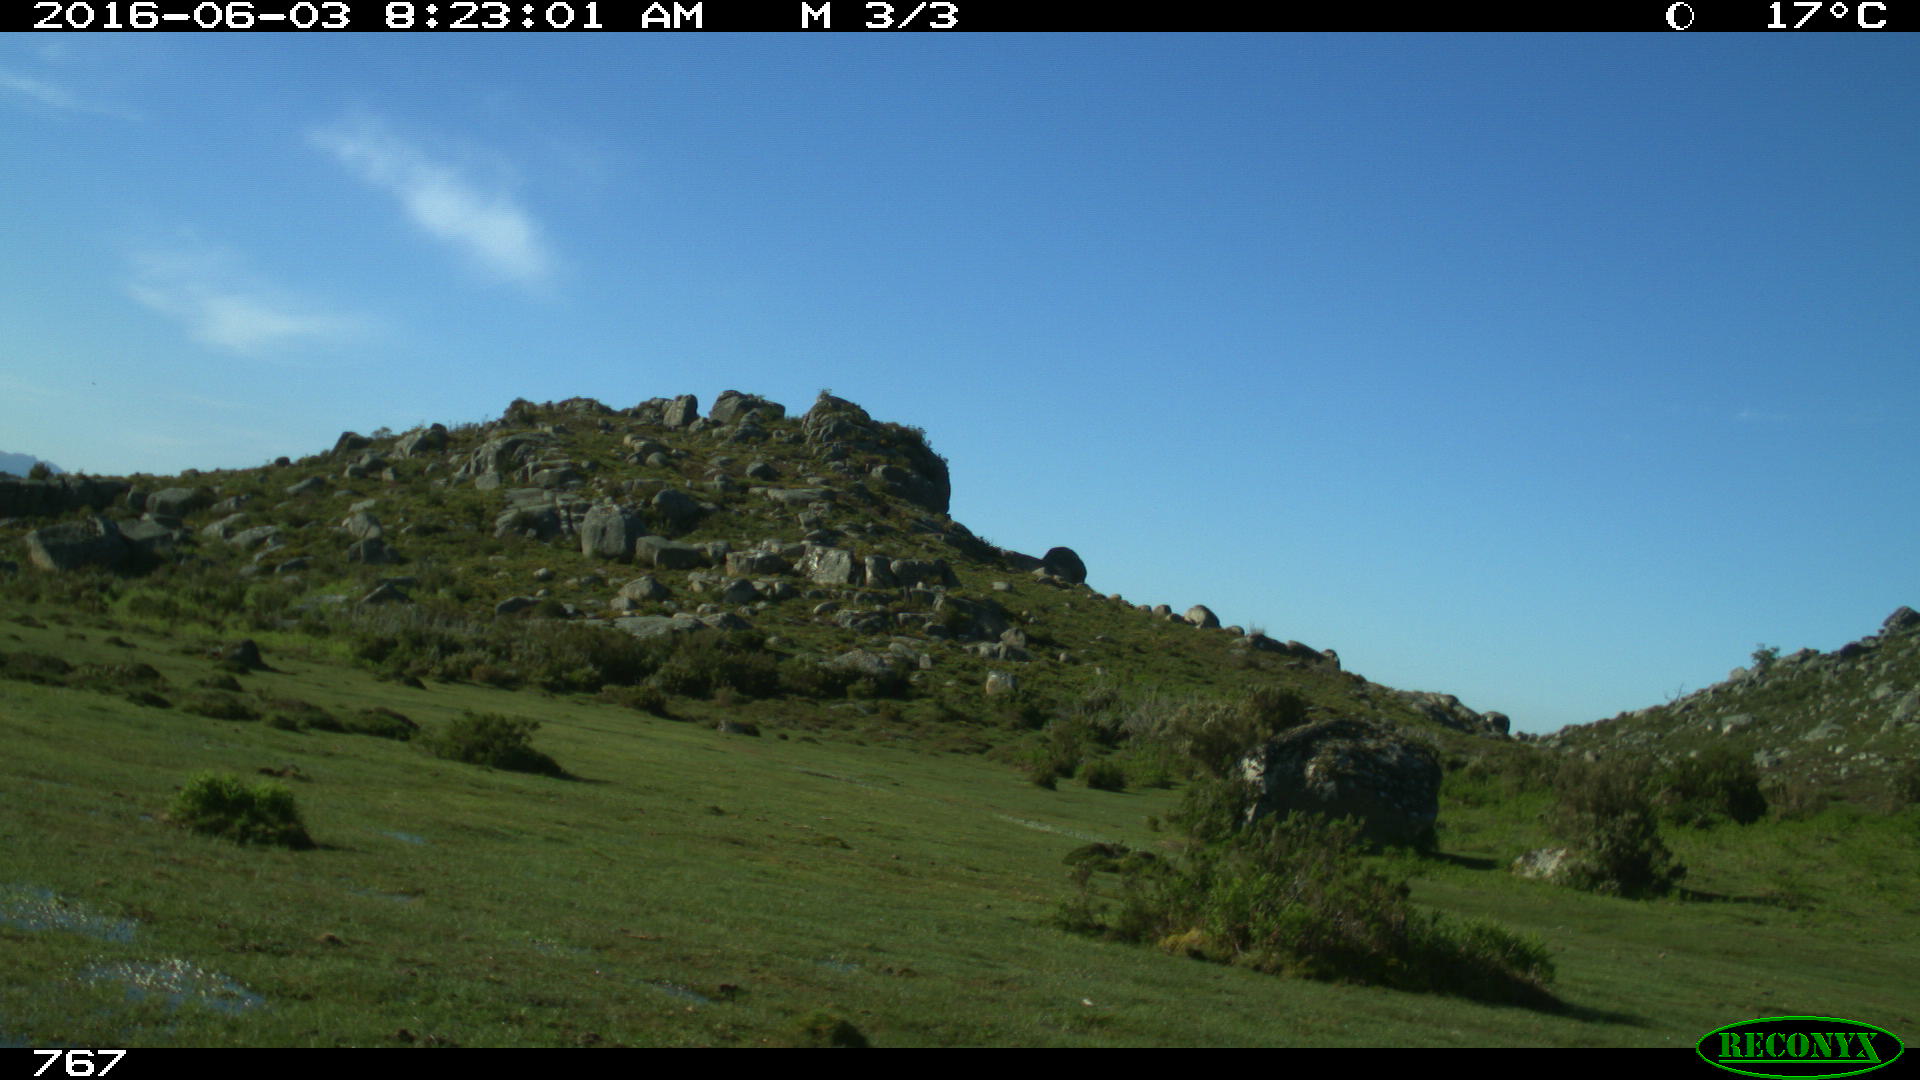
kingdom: Animalia
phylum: Chordata
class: Mammalia
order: Perissodactyla
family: Equidae
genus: Equus
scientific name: Equus caballus
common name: Horse
